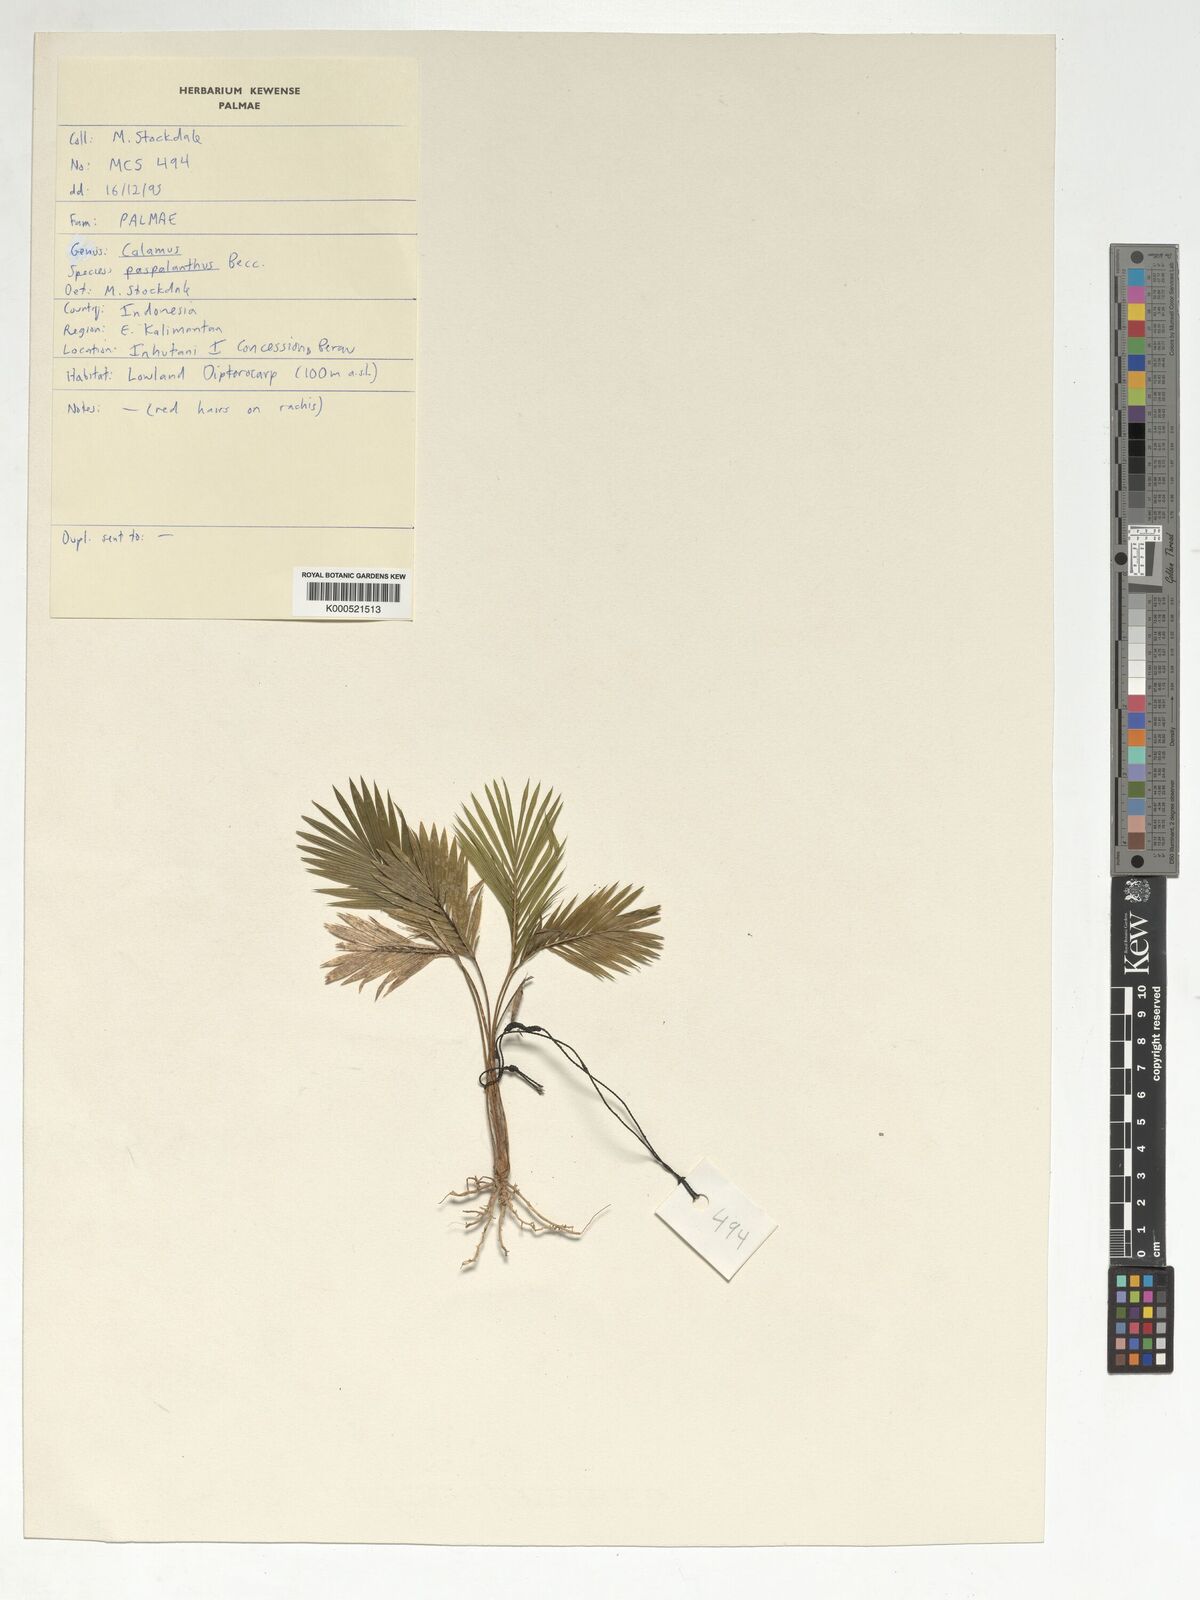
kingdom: Plantae
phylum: Tracheophyta
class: Liliopsida
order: Arecales
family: Arecaceae
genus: Calamus
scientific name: Calamus paspalanthus
